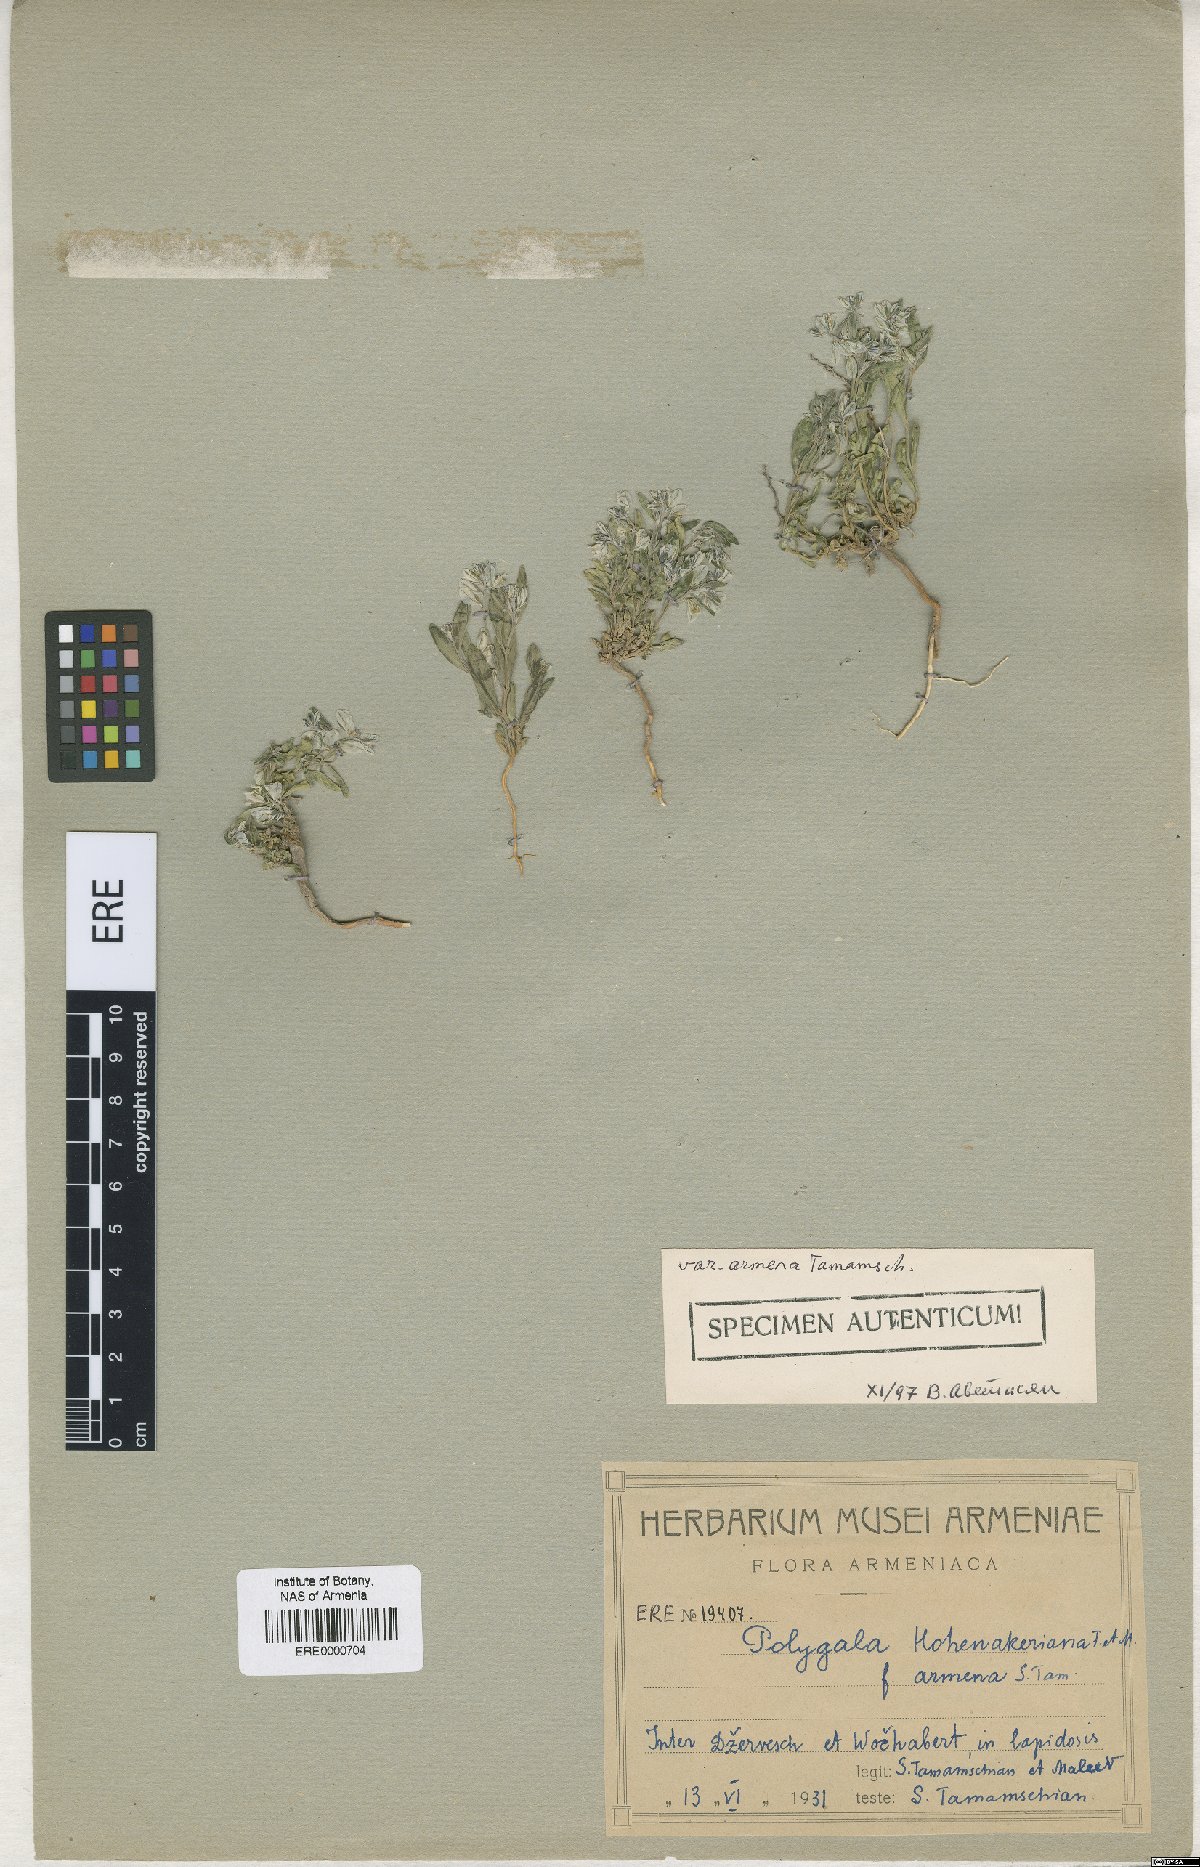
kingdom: Plantae
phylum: Tracheophyta
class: Magnoliopsida
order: Fabales
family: Polygalaceae
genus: Polygala
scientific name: Polygala hohenackeriana
